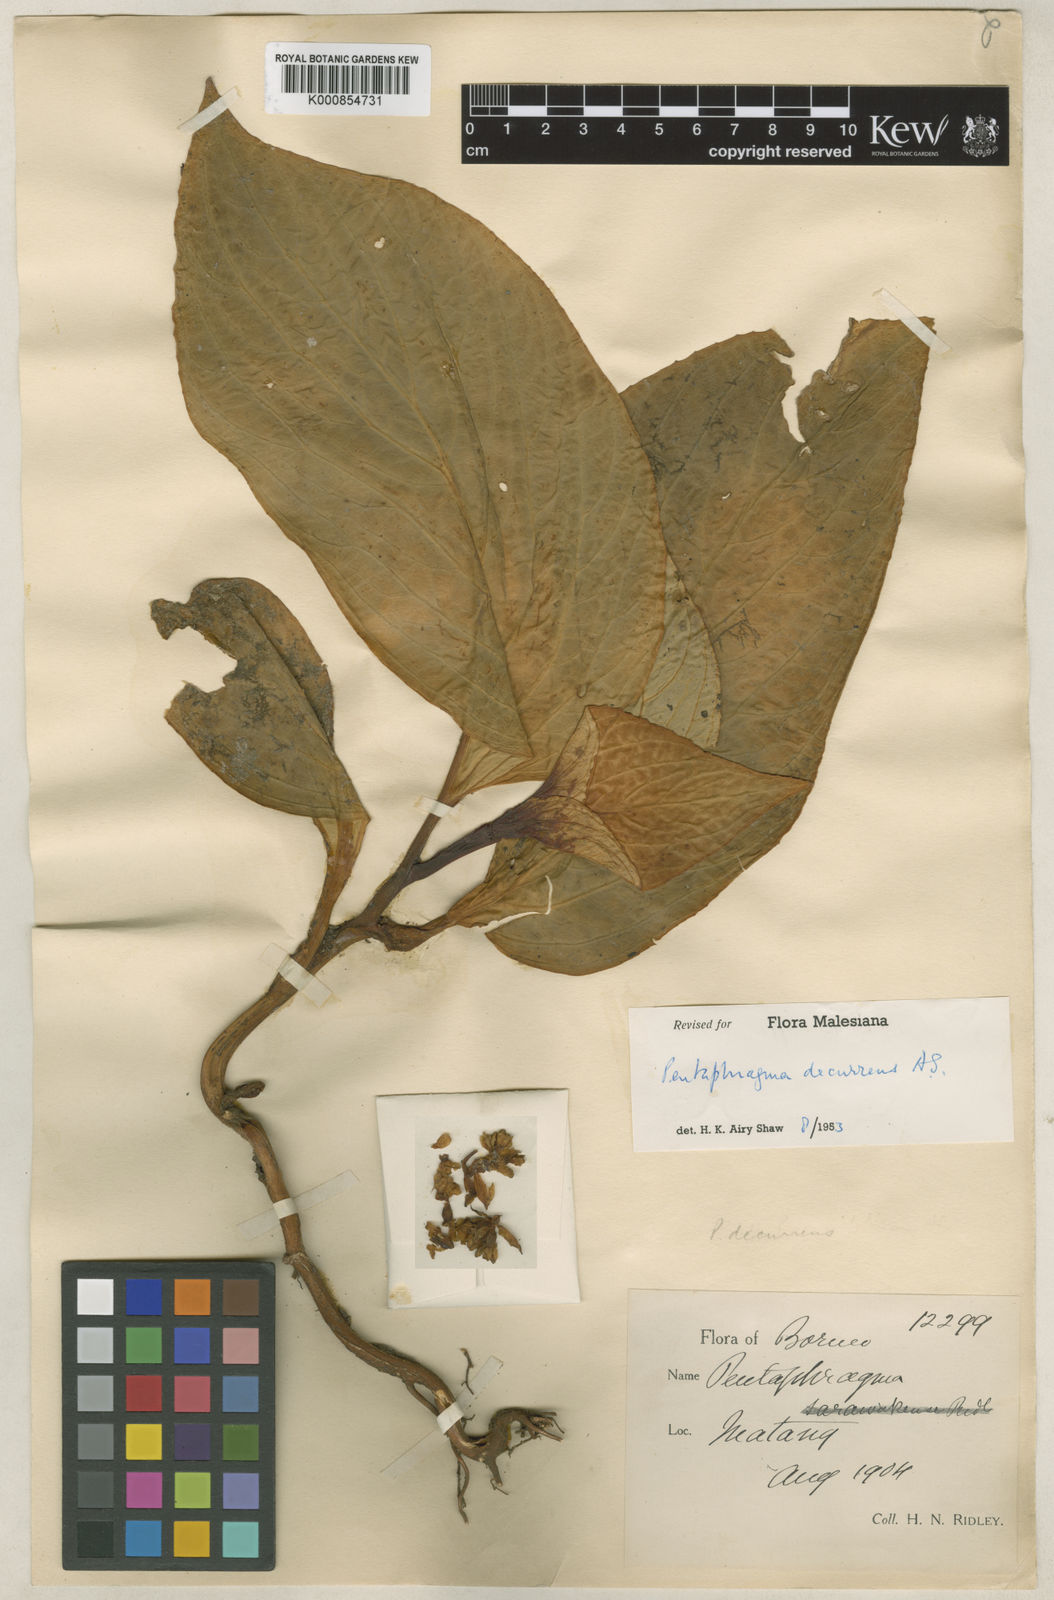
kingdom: Plantae
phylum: Tracheophyta
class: Magnoliopsida
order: Asterales
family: Pentaphragmataceae
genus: Pentaphragma
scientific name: Pentaphragma decurrens
